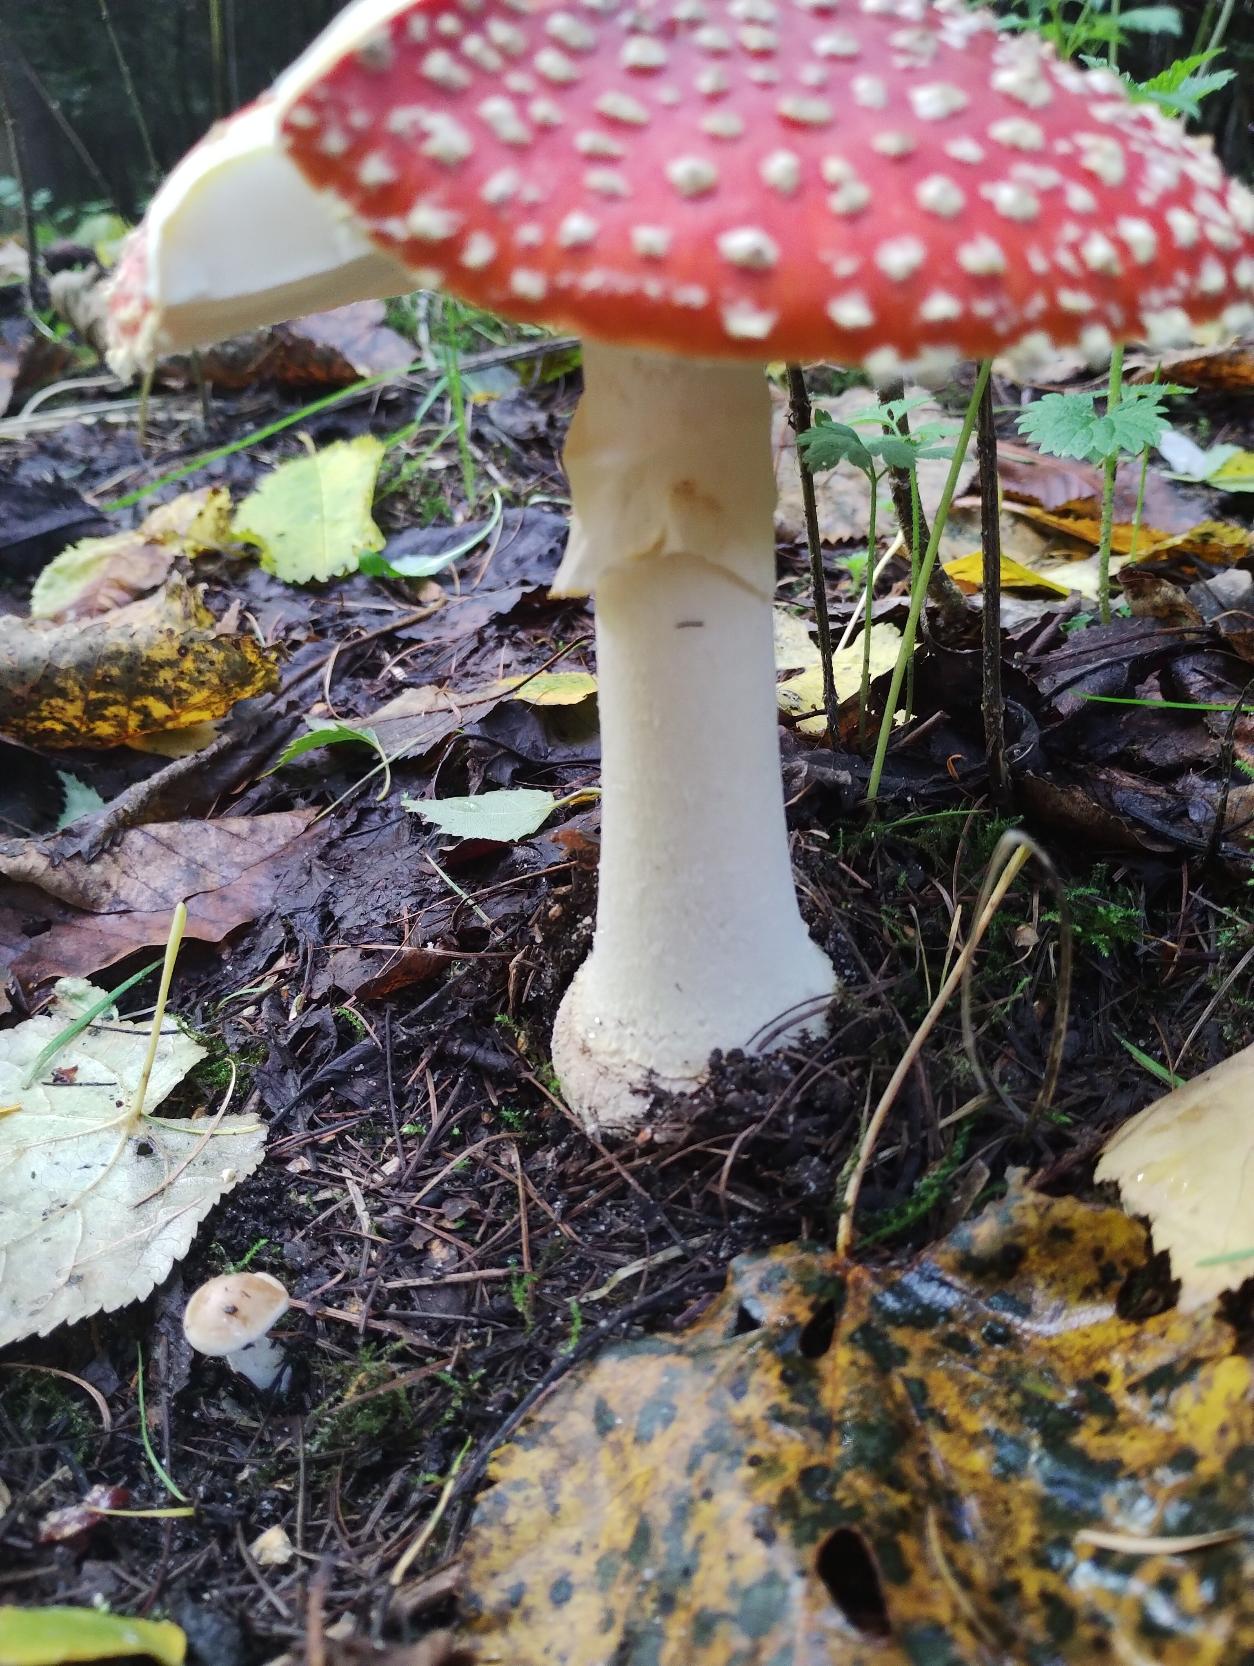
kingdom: Fungi
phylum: Basidiomycota
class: Agaricomycetes
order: Agaricales
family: Amanitaceae
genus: Amanita
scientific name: Amanita muscaria
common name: Rød fluesvamp
